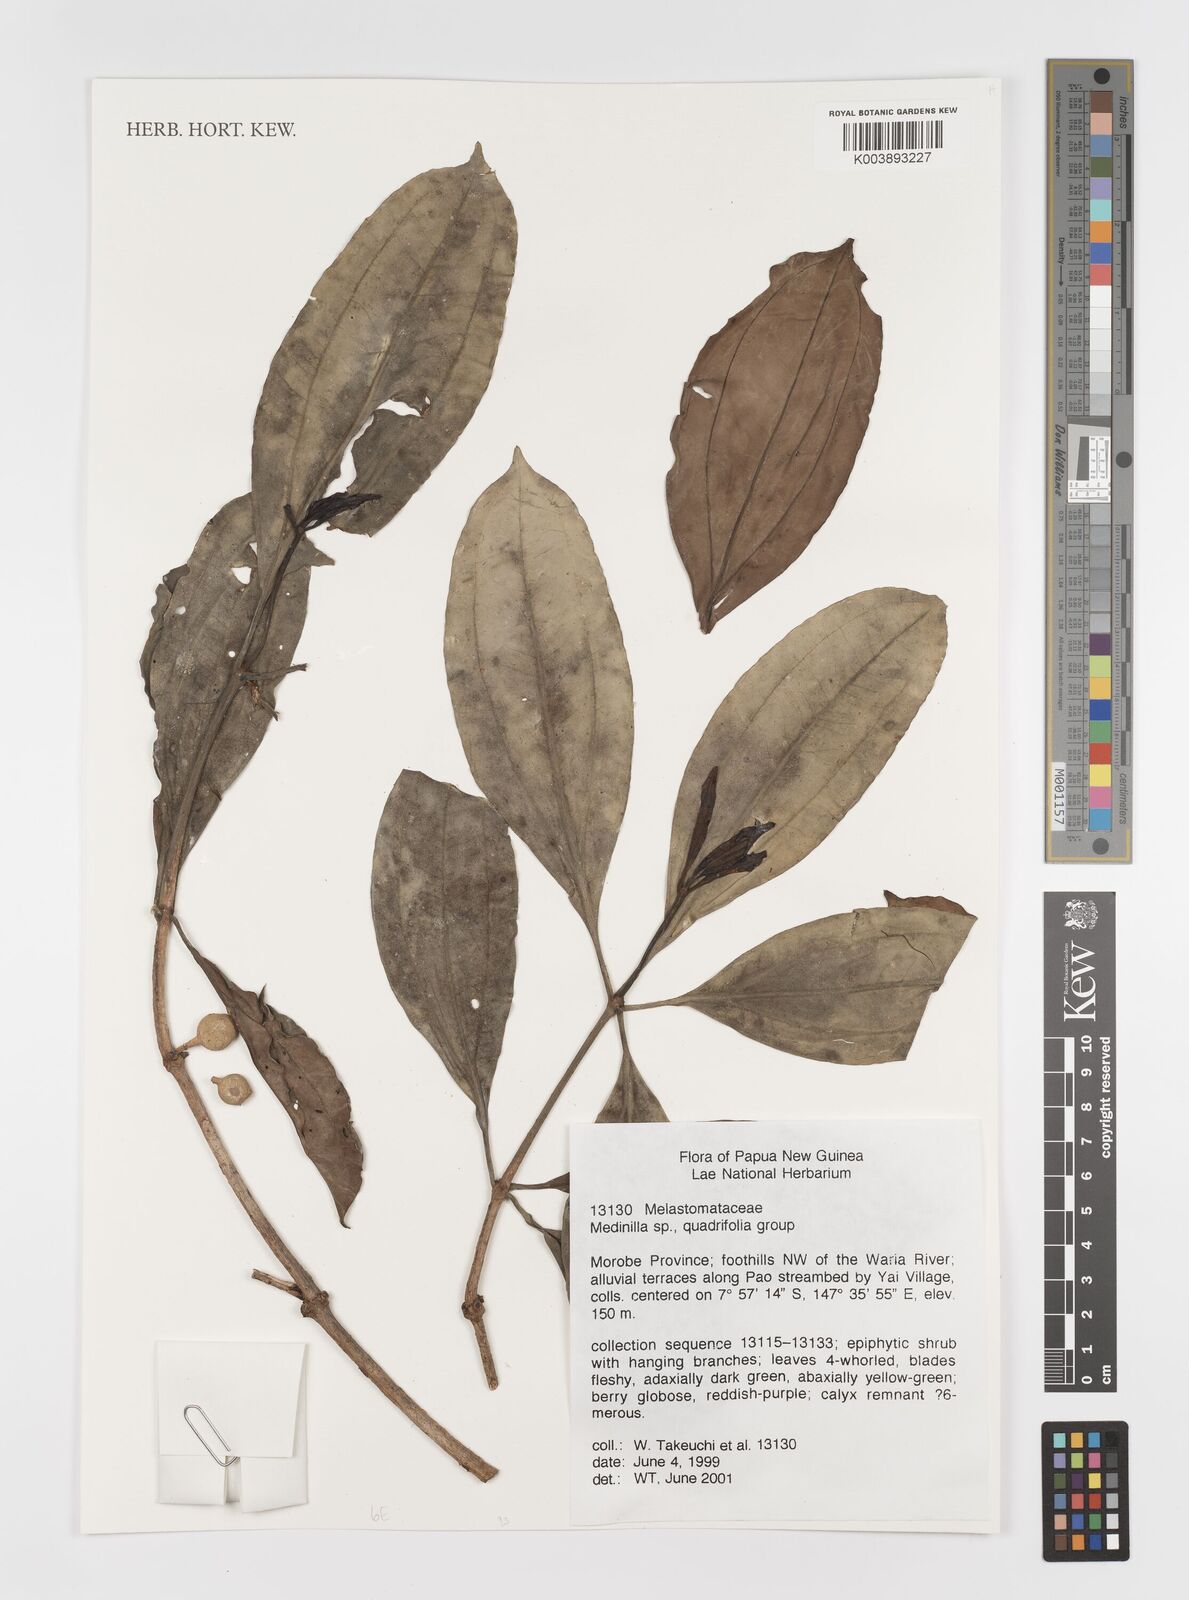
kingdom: Plantae
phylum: Tracheophyta
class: Magnoliopsida
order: Myrtales
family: Melastomataceae
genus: Medinilla
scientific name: Medinilla
